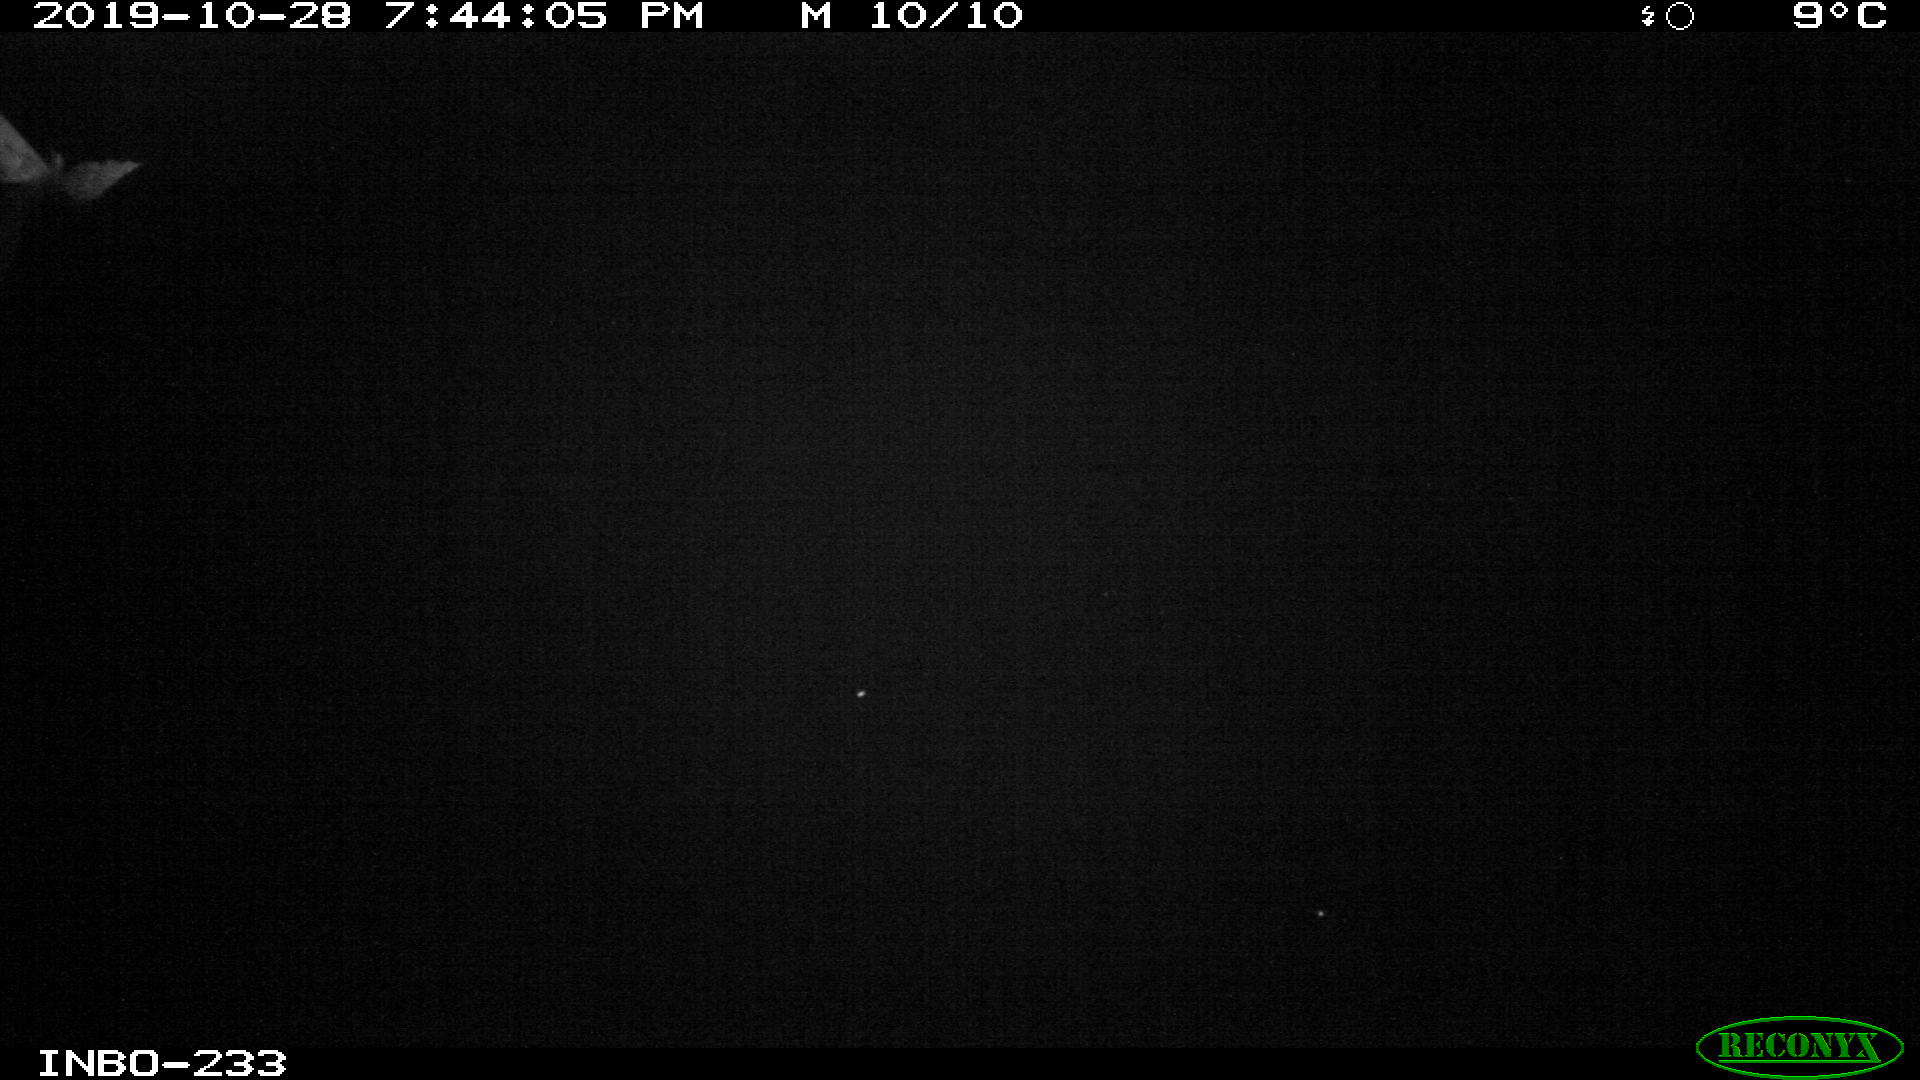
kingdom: Animalia
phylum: Chordata
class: Aves
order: Anseriformes
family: Anatidae
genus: Anas
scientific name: Anas platyrhynchos
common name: Mallard
